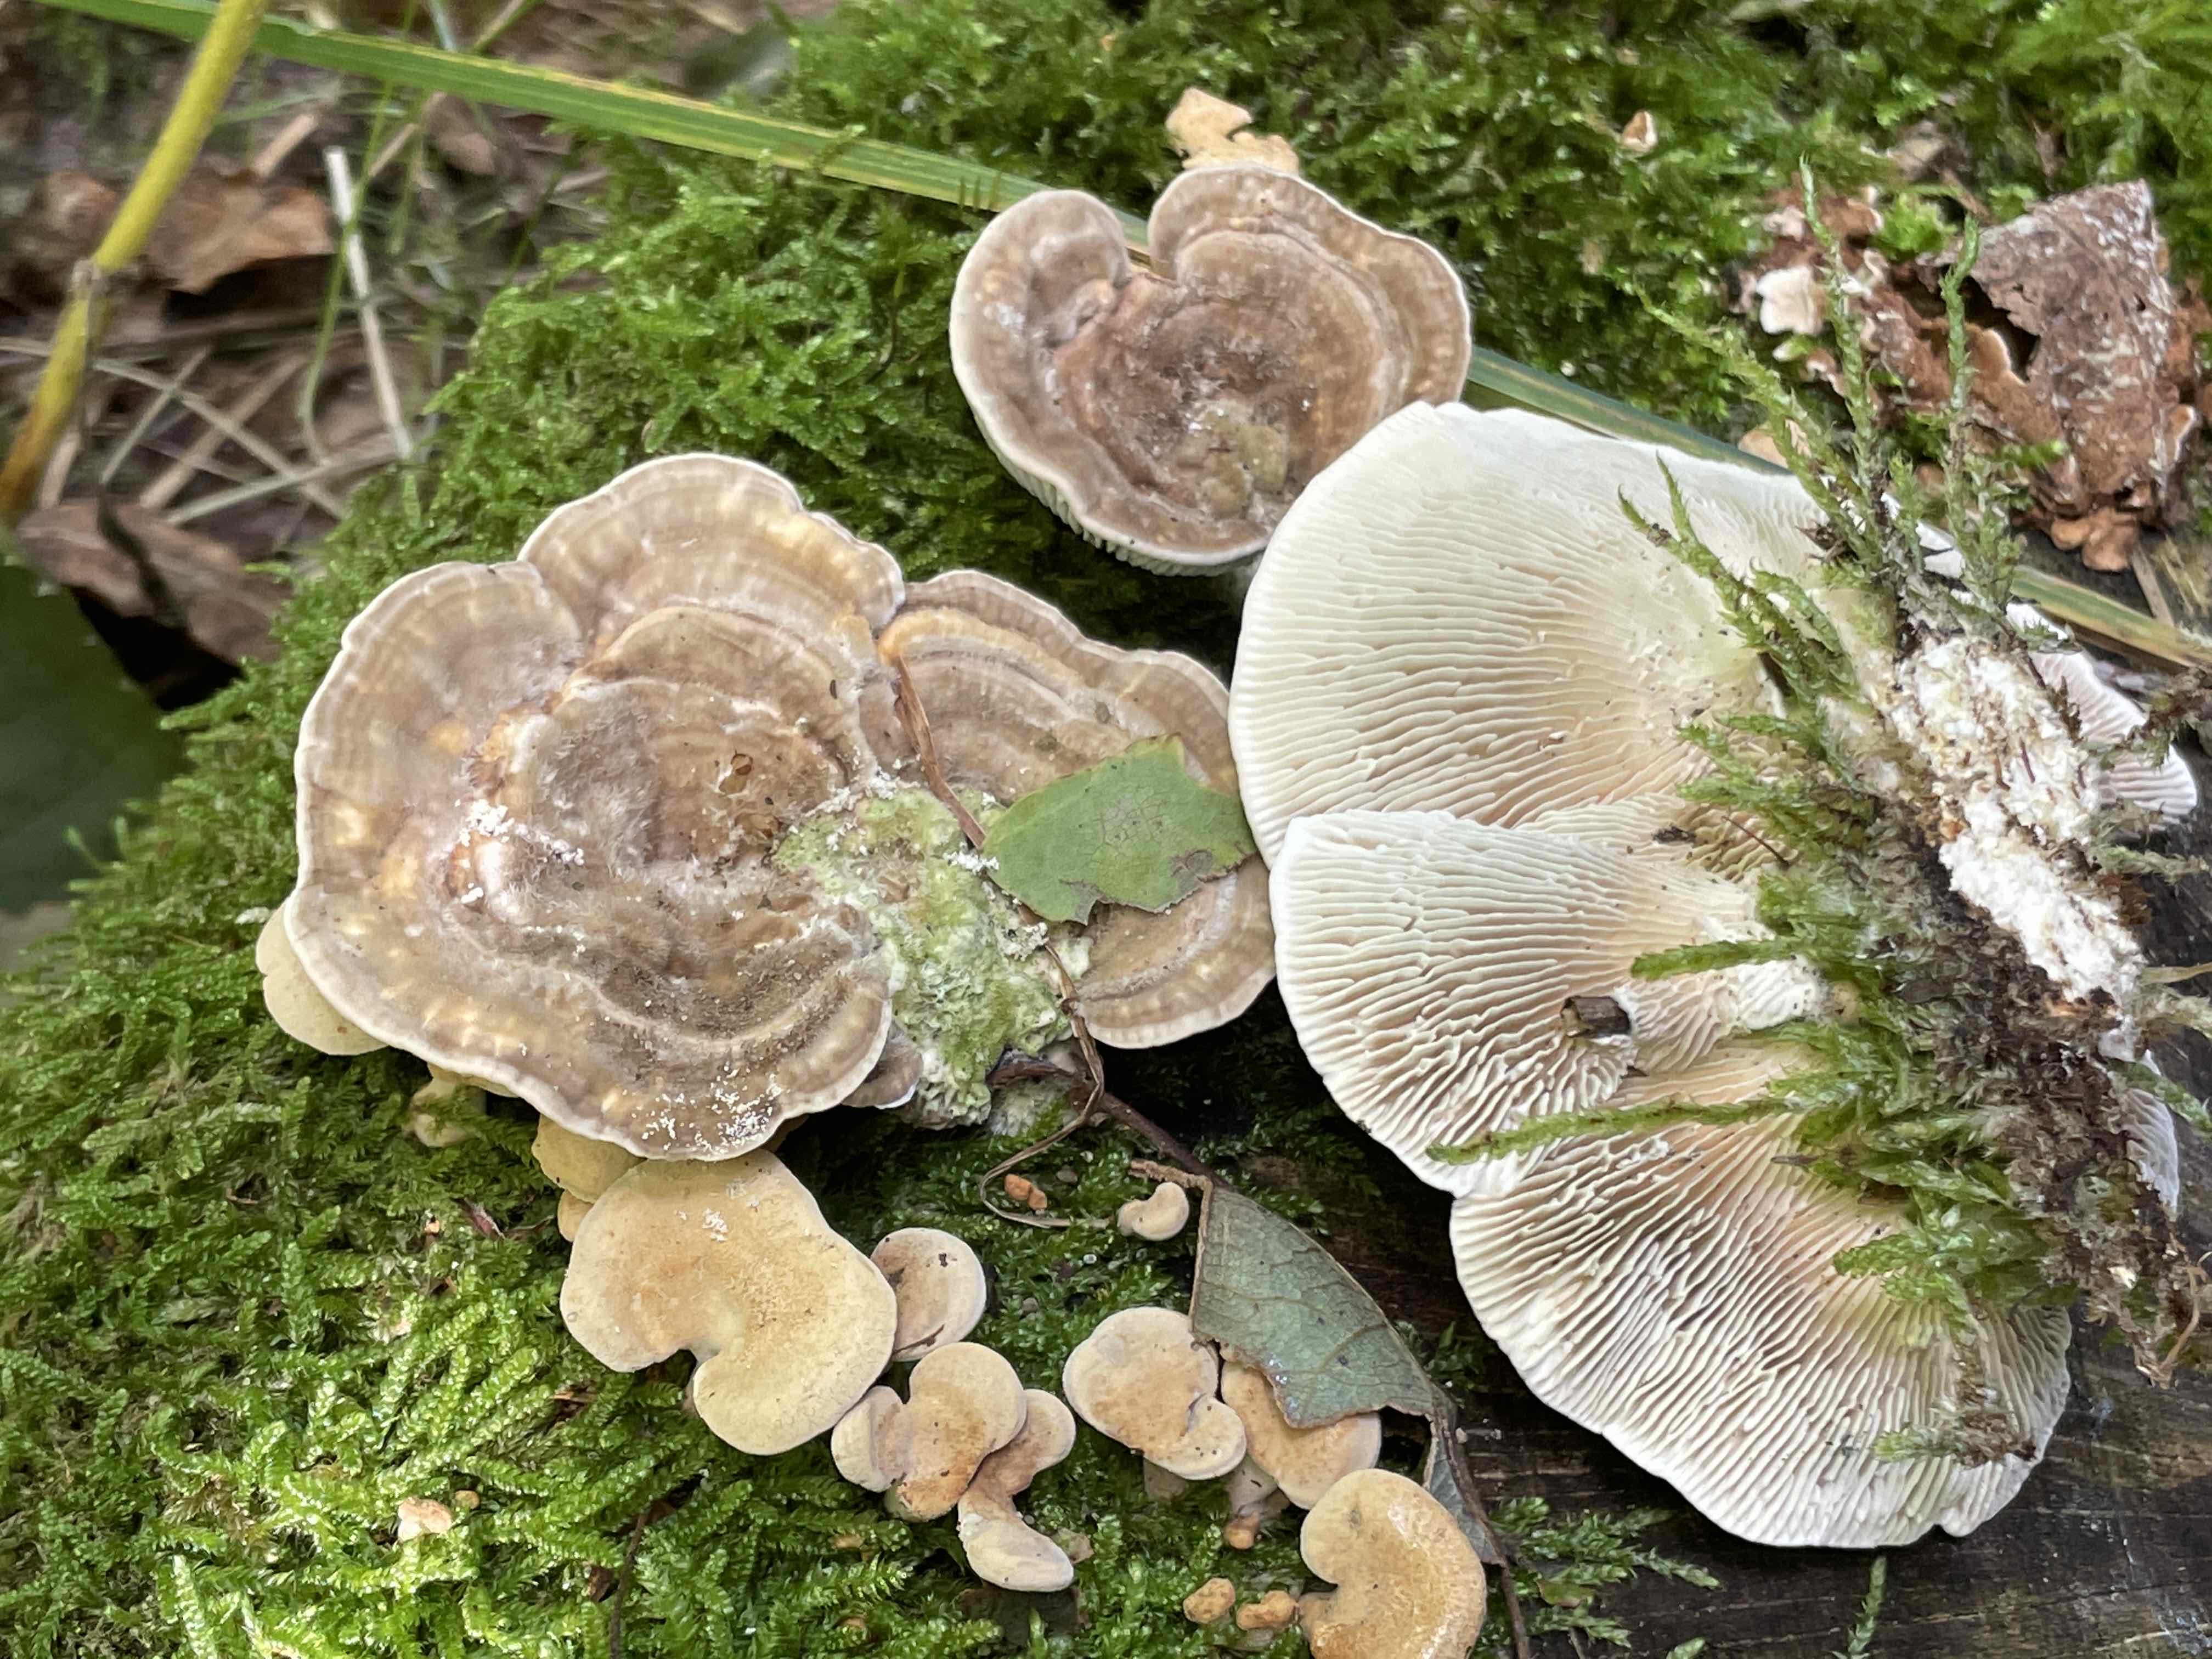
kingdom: Fungi
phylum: Basidiomycota
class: Agaricomycetes
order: Polyporales
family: Polyporaceae
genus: Lenzites
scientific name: Lenzites betulinus
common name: birke-læderporesvamp
